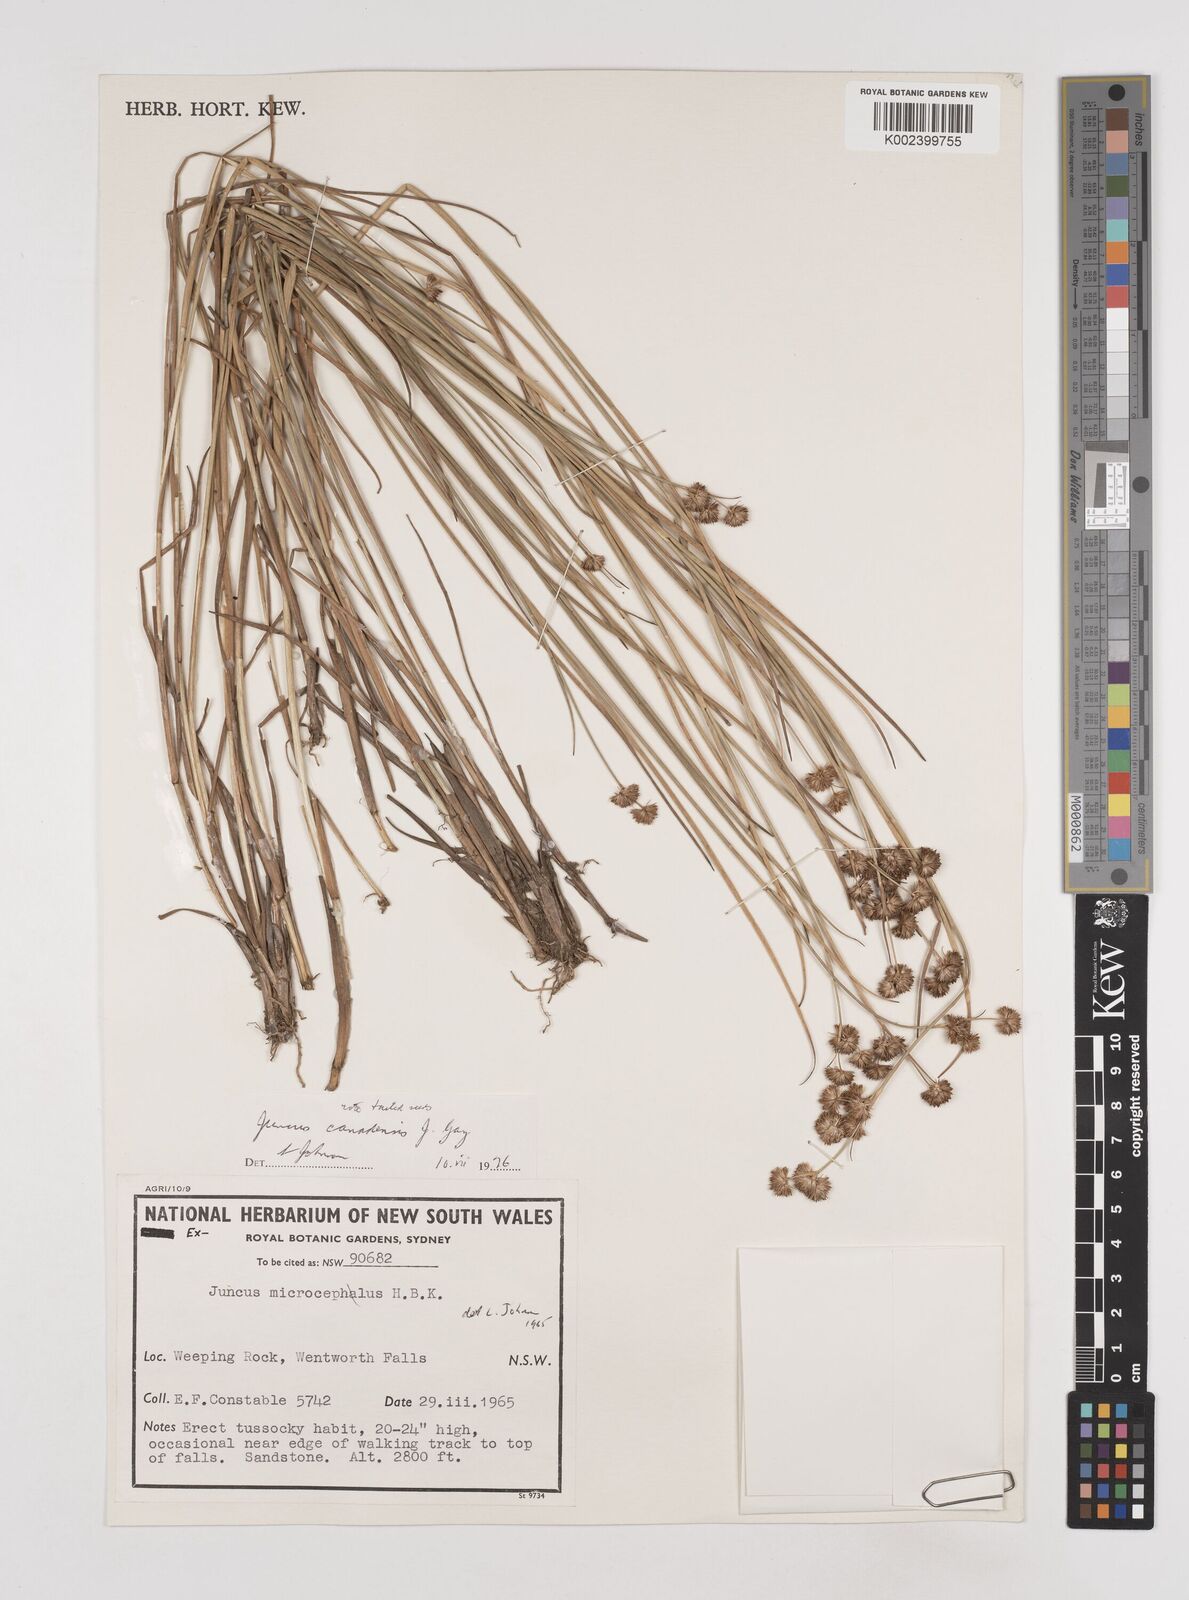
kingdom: Plantae
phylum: Tracheophyta
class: Liliopsida
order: Poales
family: Juncaceae
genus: Juncus
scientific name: Juncus canadensis
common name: Canada rush
